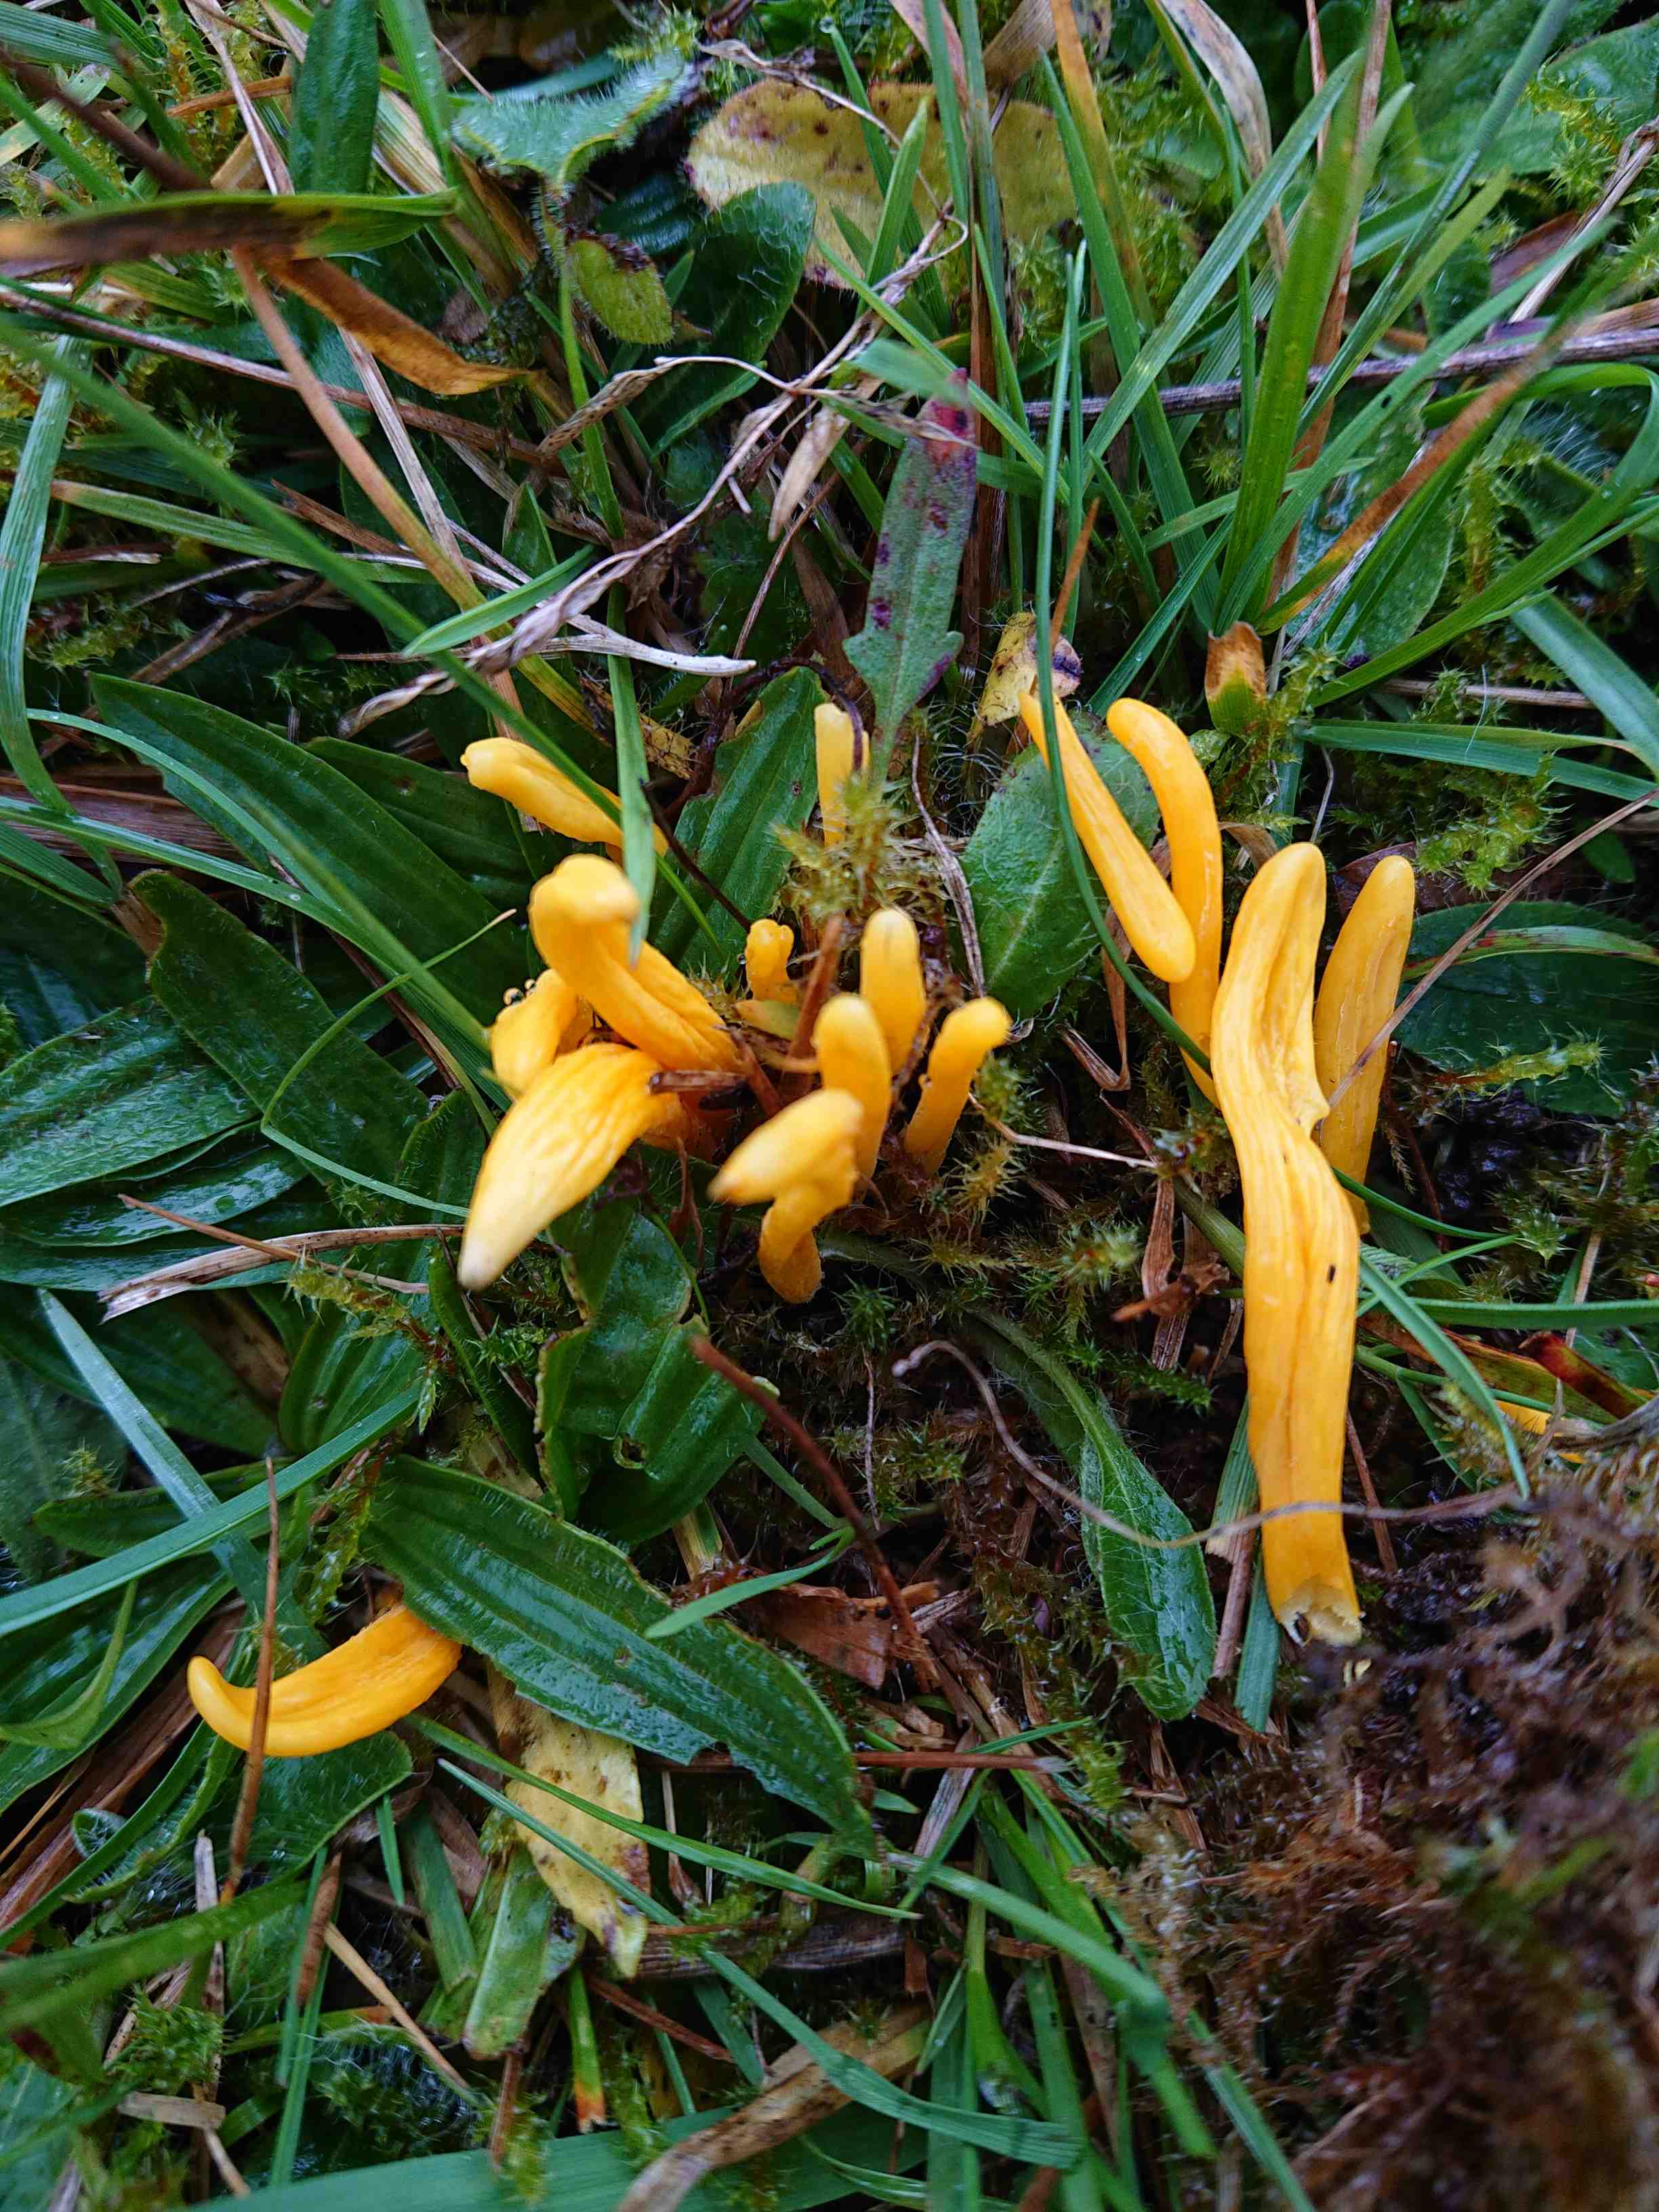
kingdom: Fungi
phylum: Basidiomycota
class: Agaricomycetes
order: Agaricales
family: Clavariaceae
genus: Clavulinopsis
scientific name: Clavulinopsis luteoalba
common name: abrikos-køllesvamp
